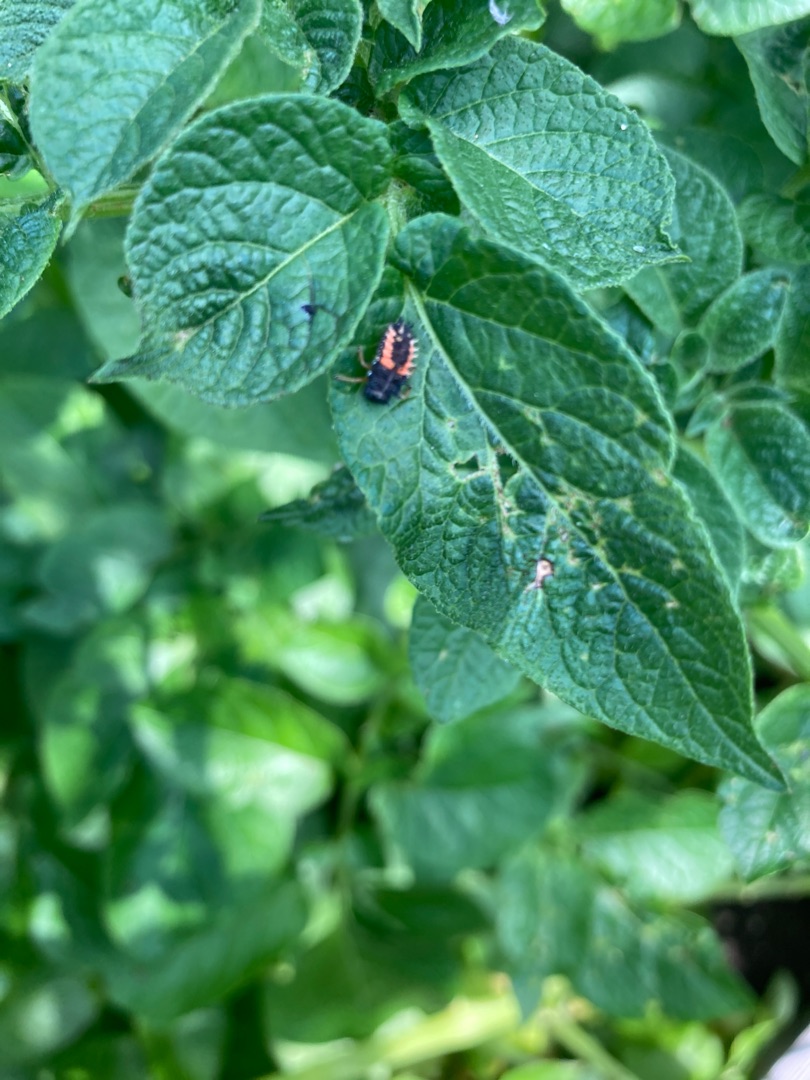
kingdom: Animalia
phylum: Arthropoda
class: Insecta
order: Coleoptera
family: Coccinellidae
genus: Harmonia
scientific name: Harmonia axyridis
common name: Harlekinmariehøne
